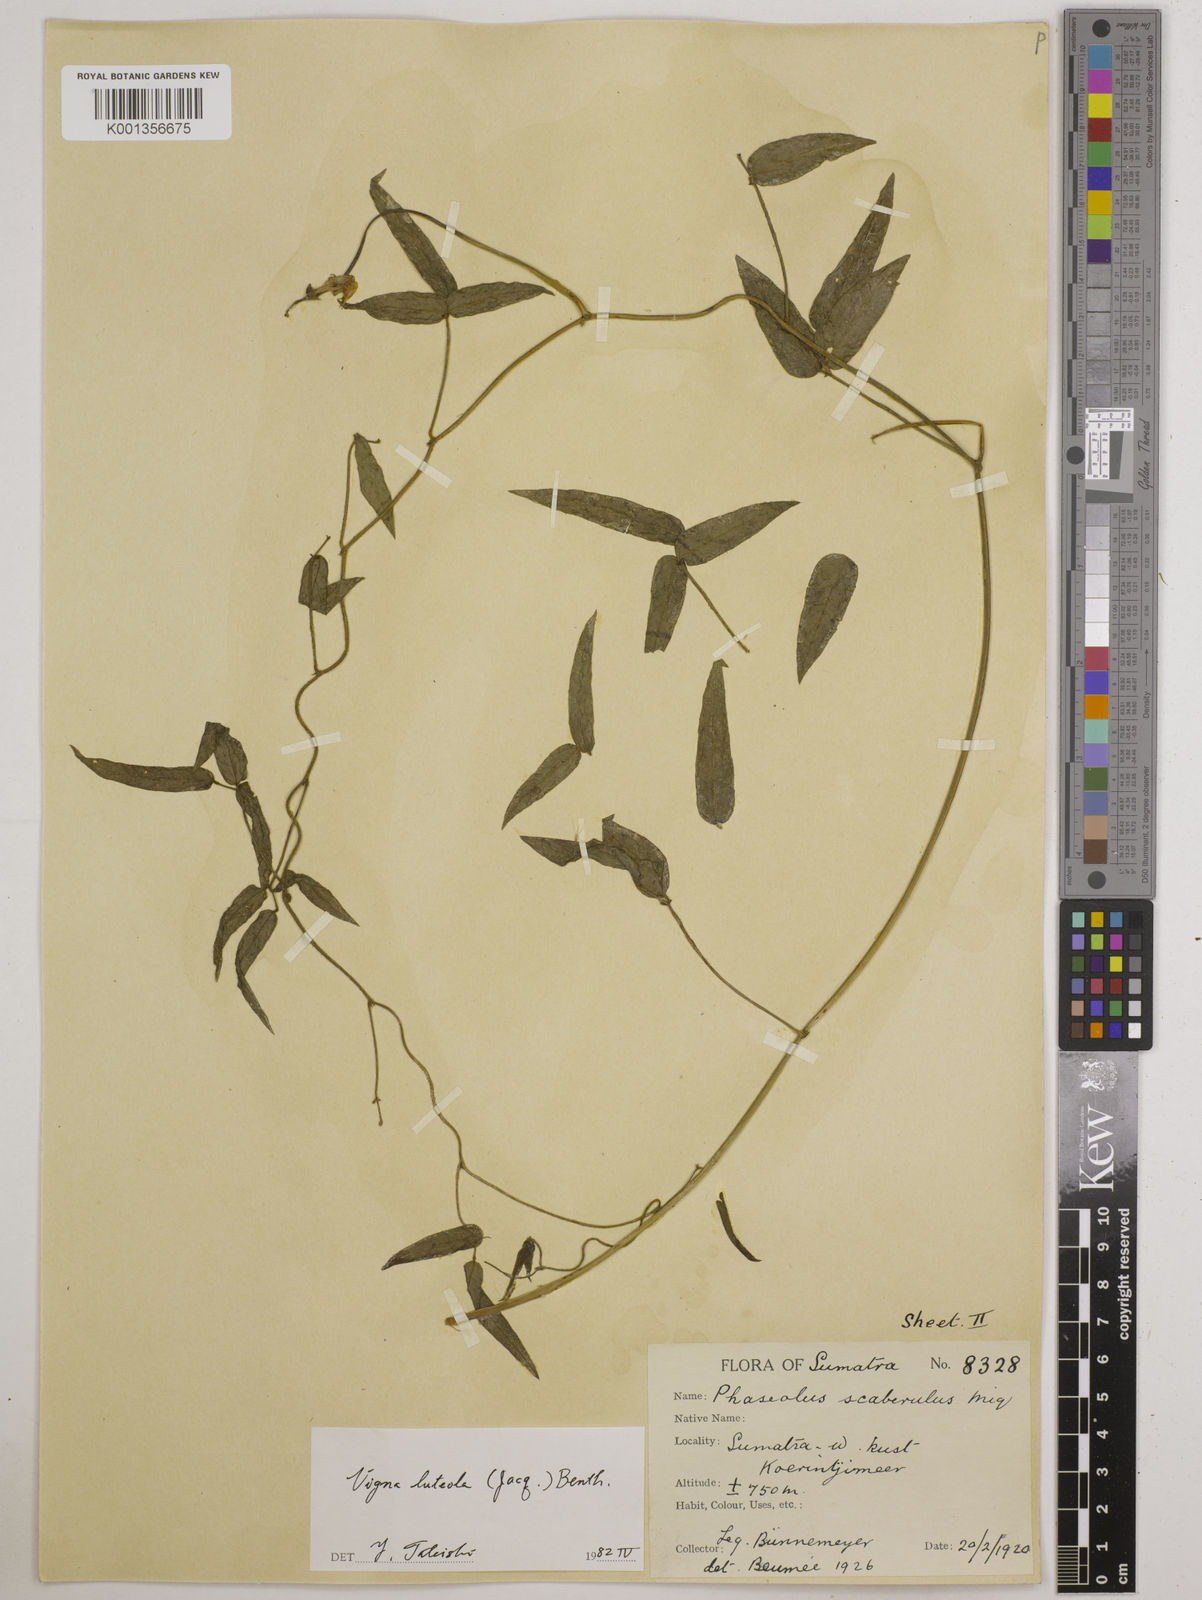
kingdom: Plantae
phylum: Tracheophyta
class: Magnoliopsida
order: Fabales
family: Fabaceae
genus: Vigna
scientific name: Vigna luteola
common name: Hairypod cowpea
